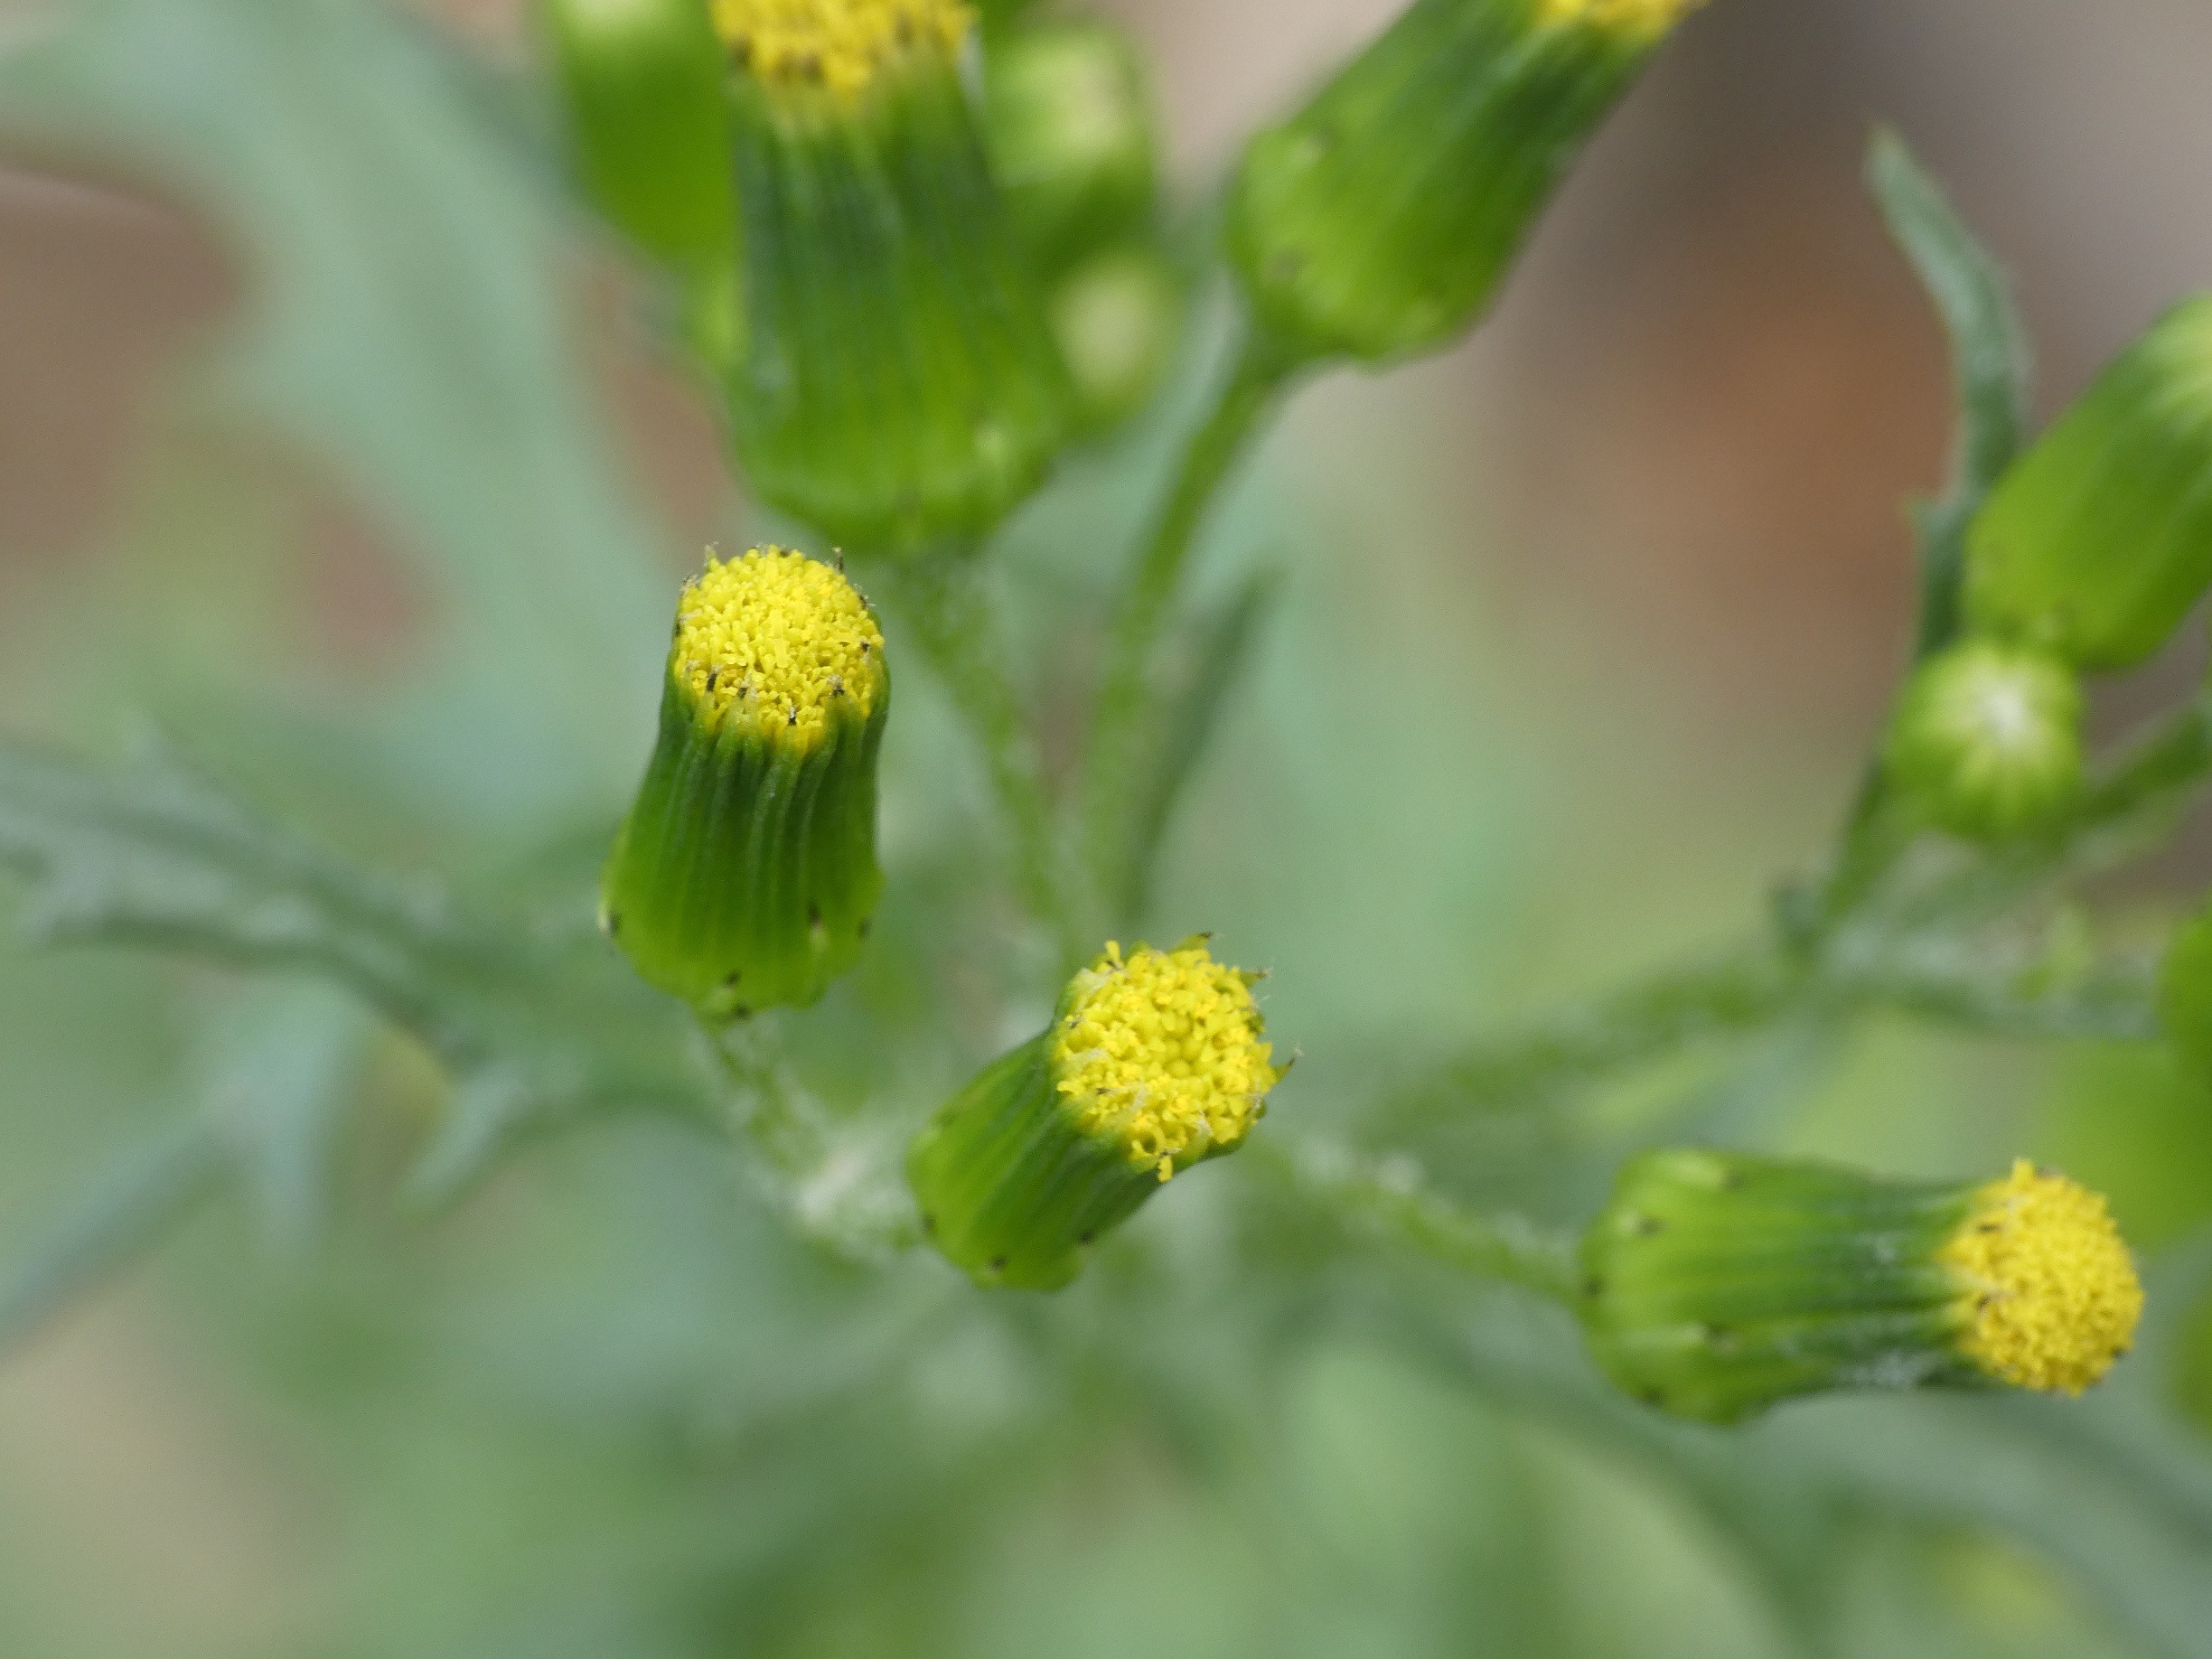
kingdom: Plantae
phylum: Tracheophyta
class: Magnoliopsida
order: Asterales
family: Asteraceae
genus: Senecio
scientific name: Senecio vulgaris
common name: Almindelig brandbæger
